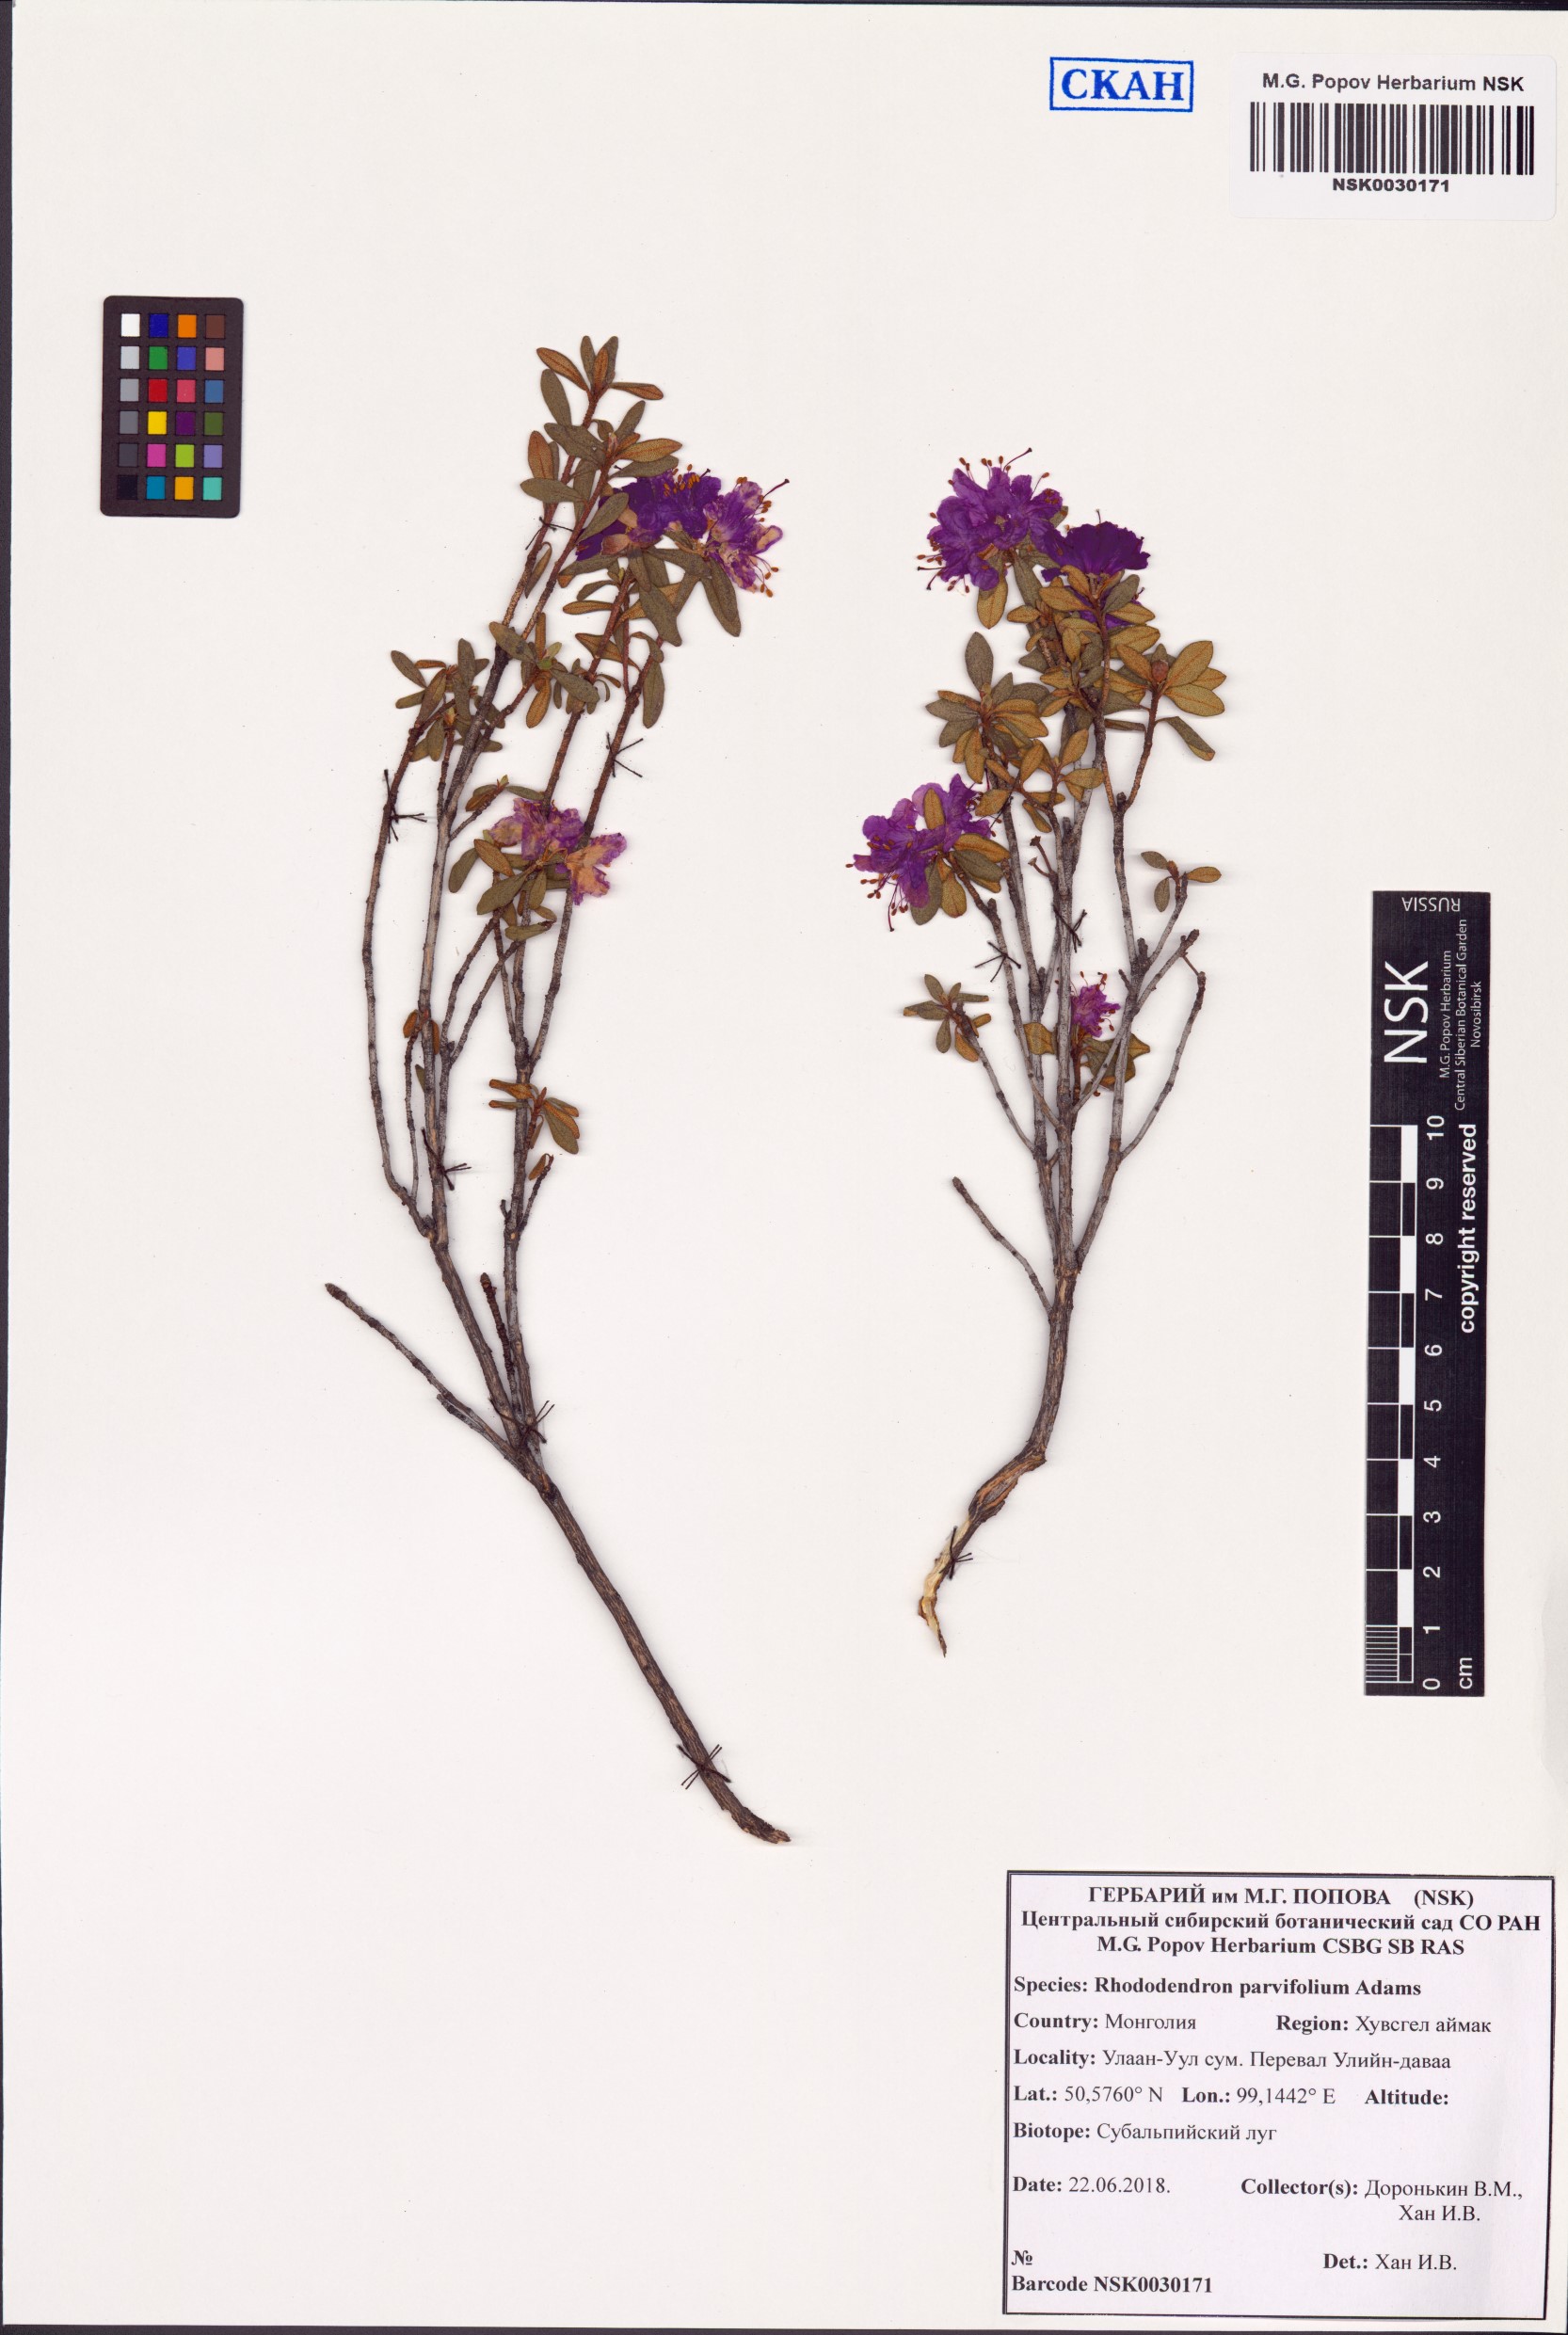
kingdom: Plantae
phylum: Tracheophyta
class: Magnoliopsida
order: Ericales
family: Ericaceae
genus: Rhododendron
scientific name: Rhododendron parvifolium
